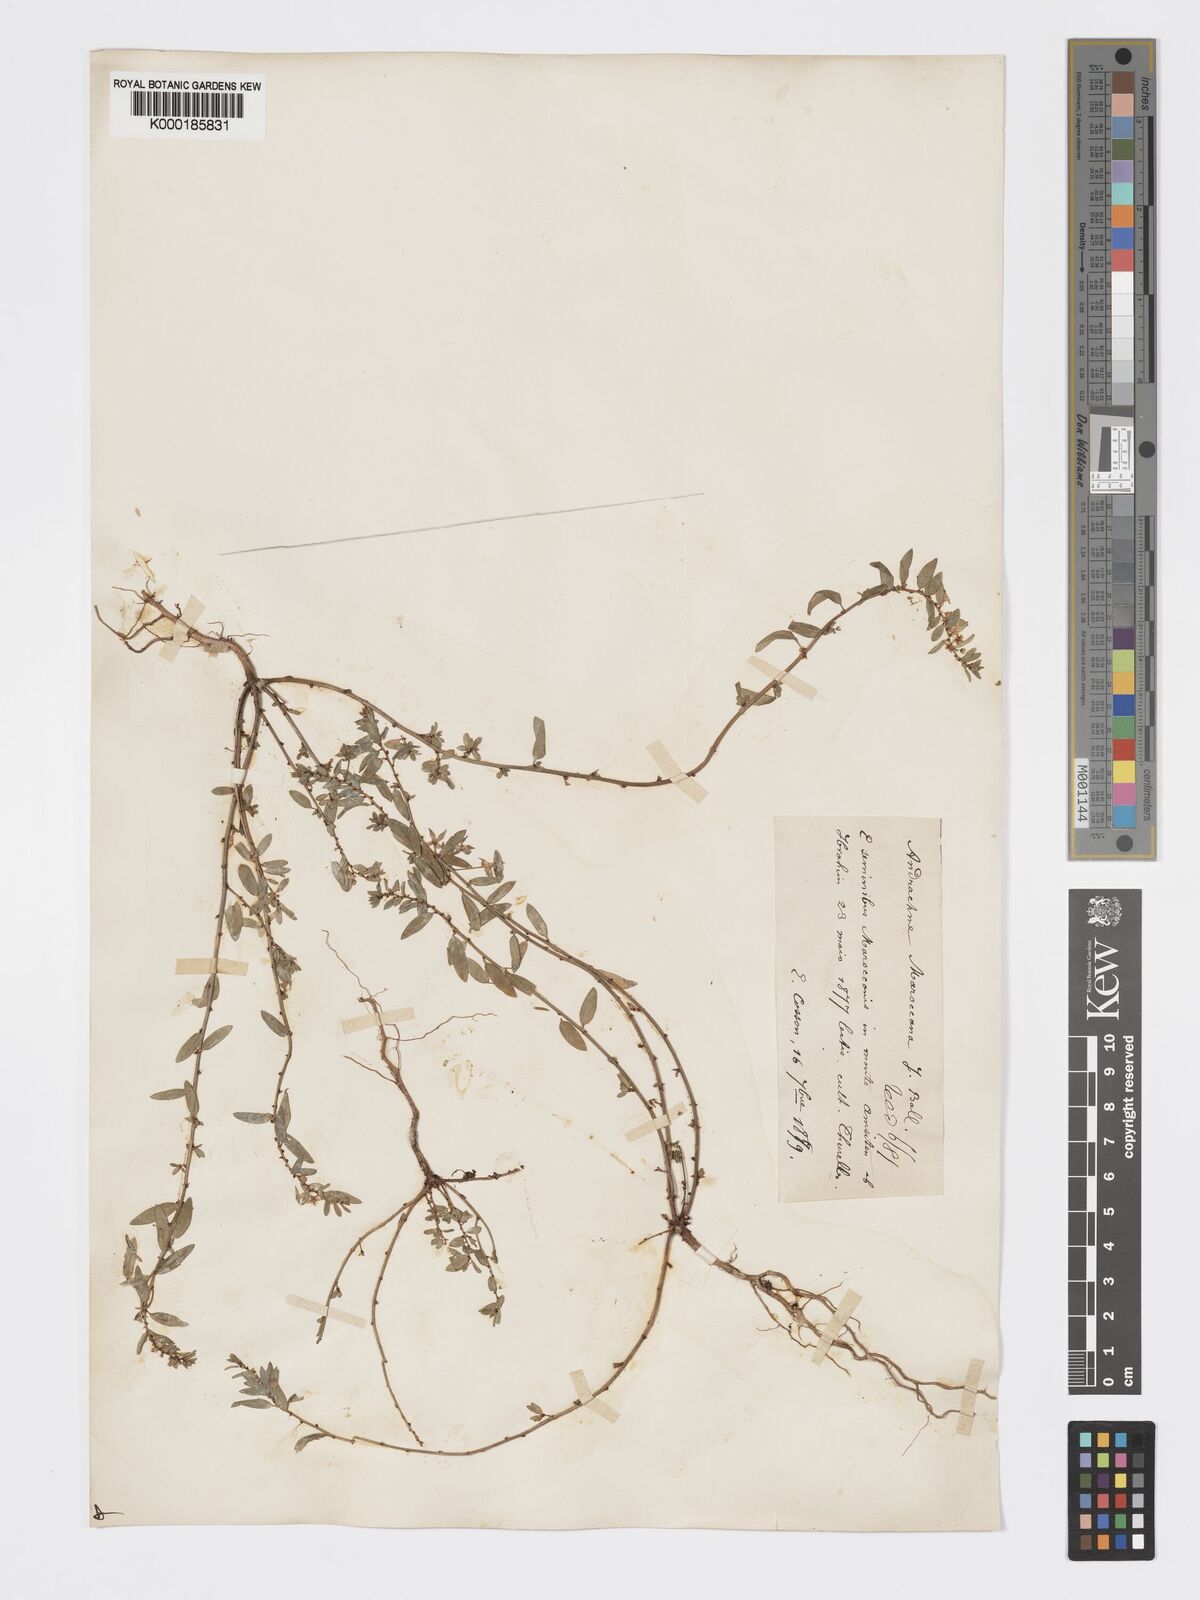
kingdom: Plantae
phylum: Tracheophyta
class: Magnoliopsida
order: Malpighiales
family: Phyllanthaceae
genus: Andrachne
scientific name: Andrachne maroccana
